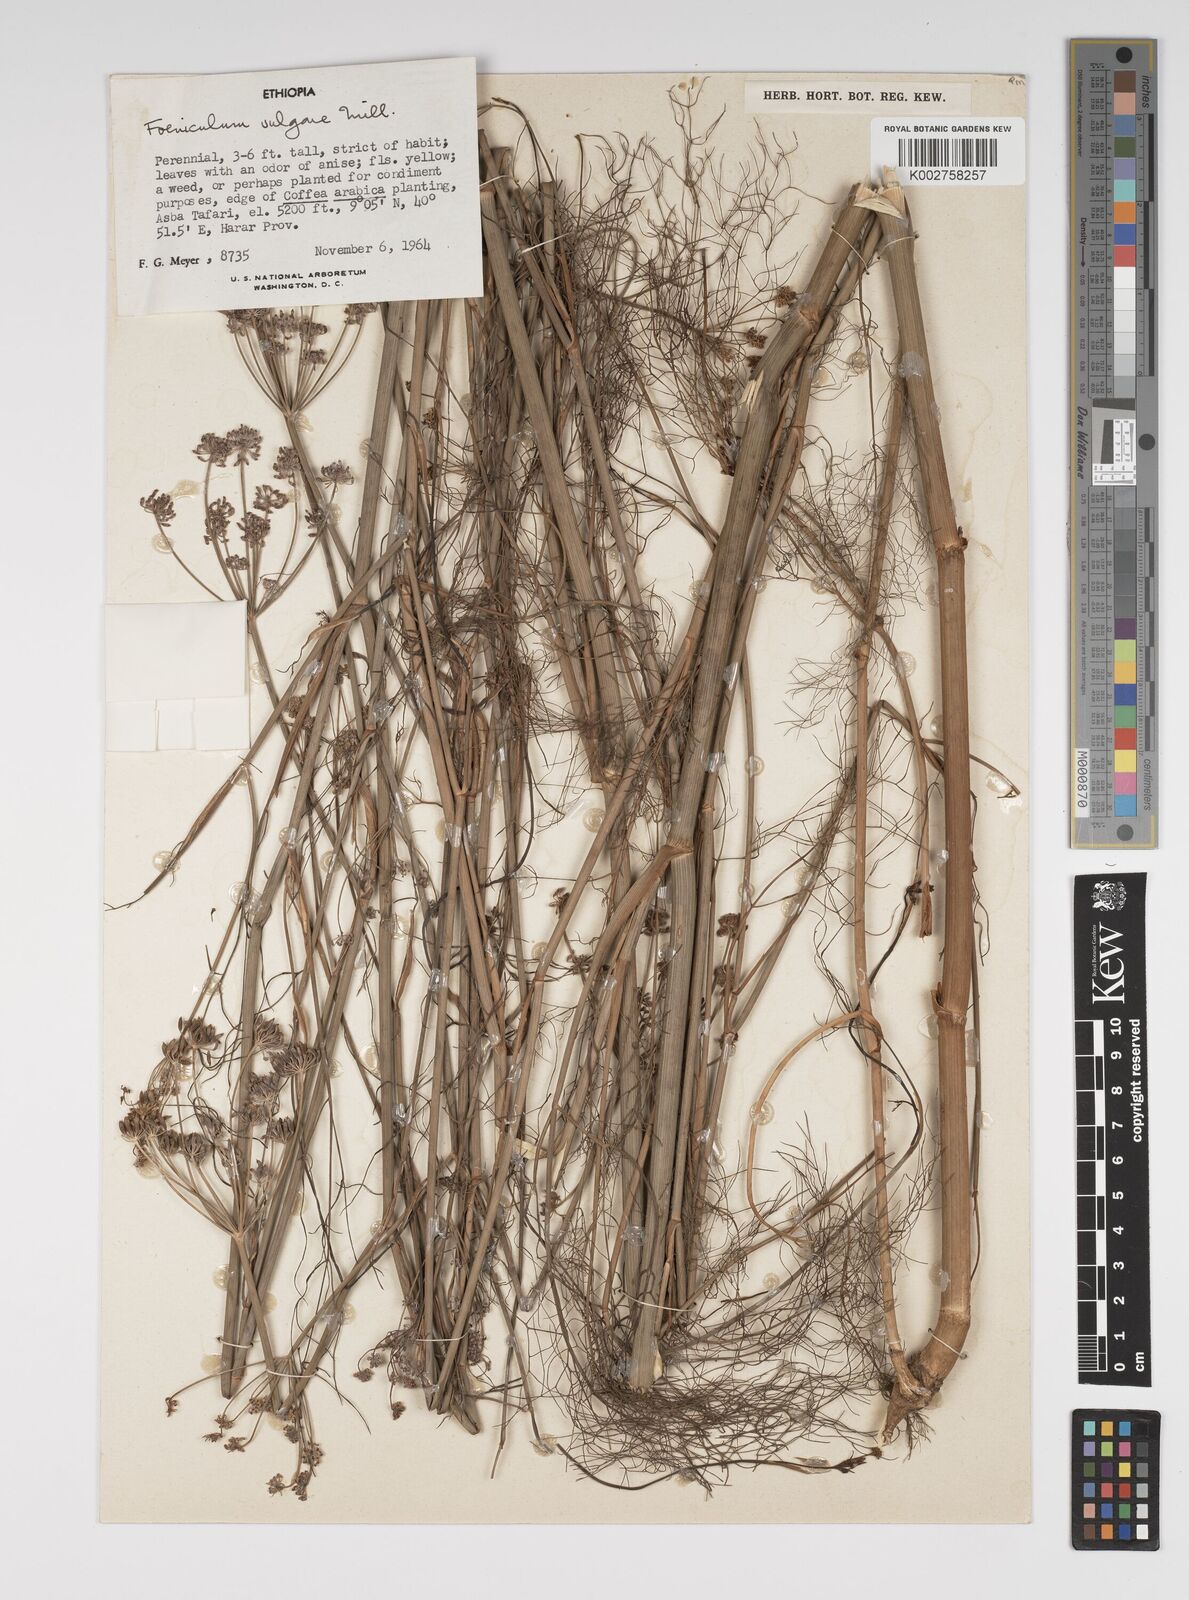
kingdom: Plantae
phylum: Tracheophyta
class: Magnoliopsida
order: Apiales
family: Apiaceae
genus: Foeniculum
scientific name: Foeniculum vulgare
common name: Fennel
